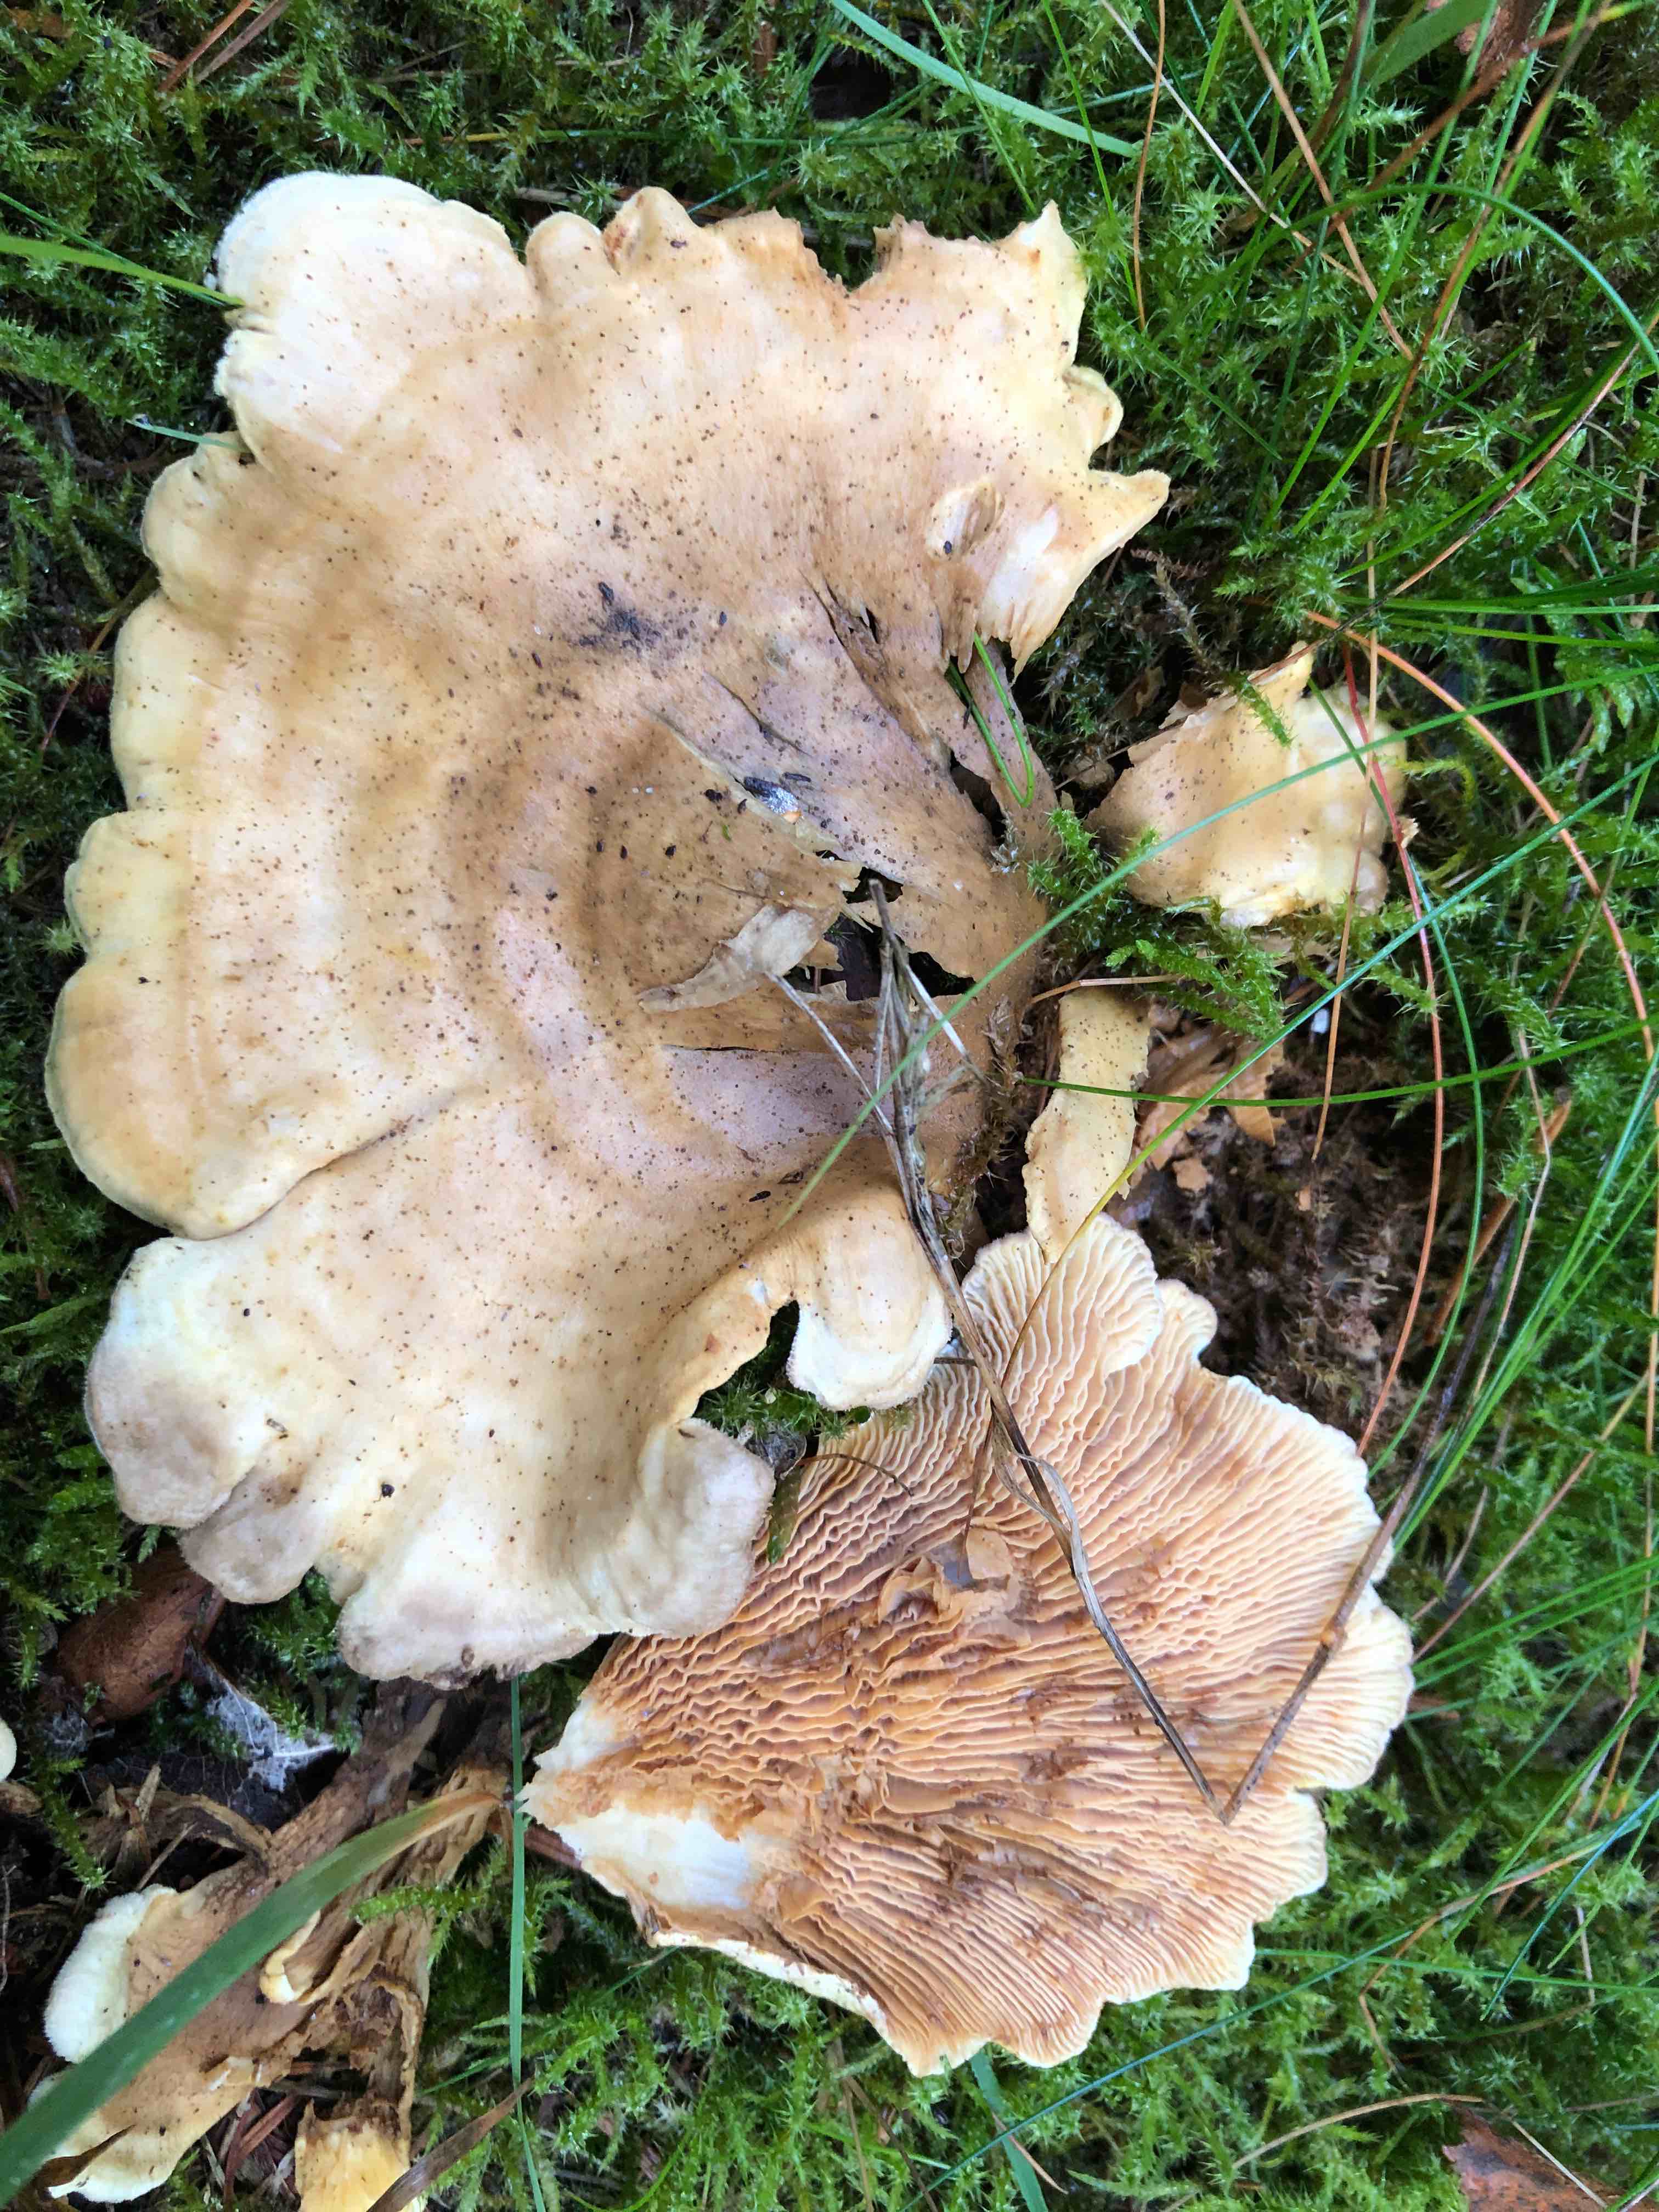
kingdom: Fungi
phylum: Basidiomycota
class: Agaricomycetes
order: Boletales
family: Tapinellaceae
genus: Tapinella
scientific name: Tapinella panuoides
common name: tømmer-viftesvamp
